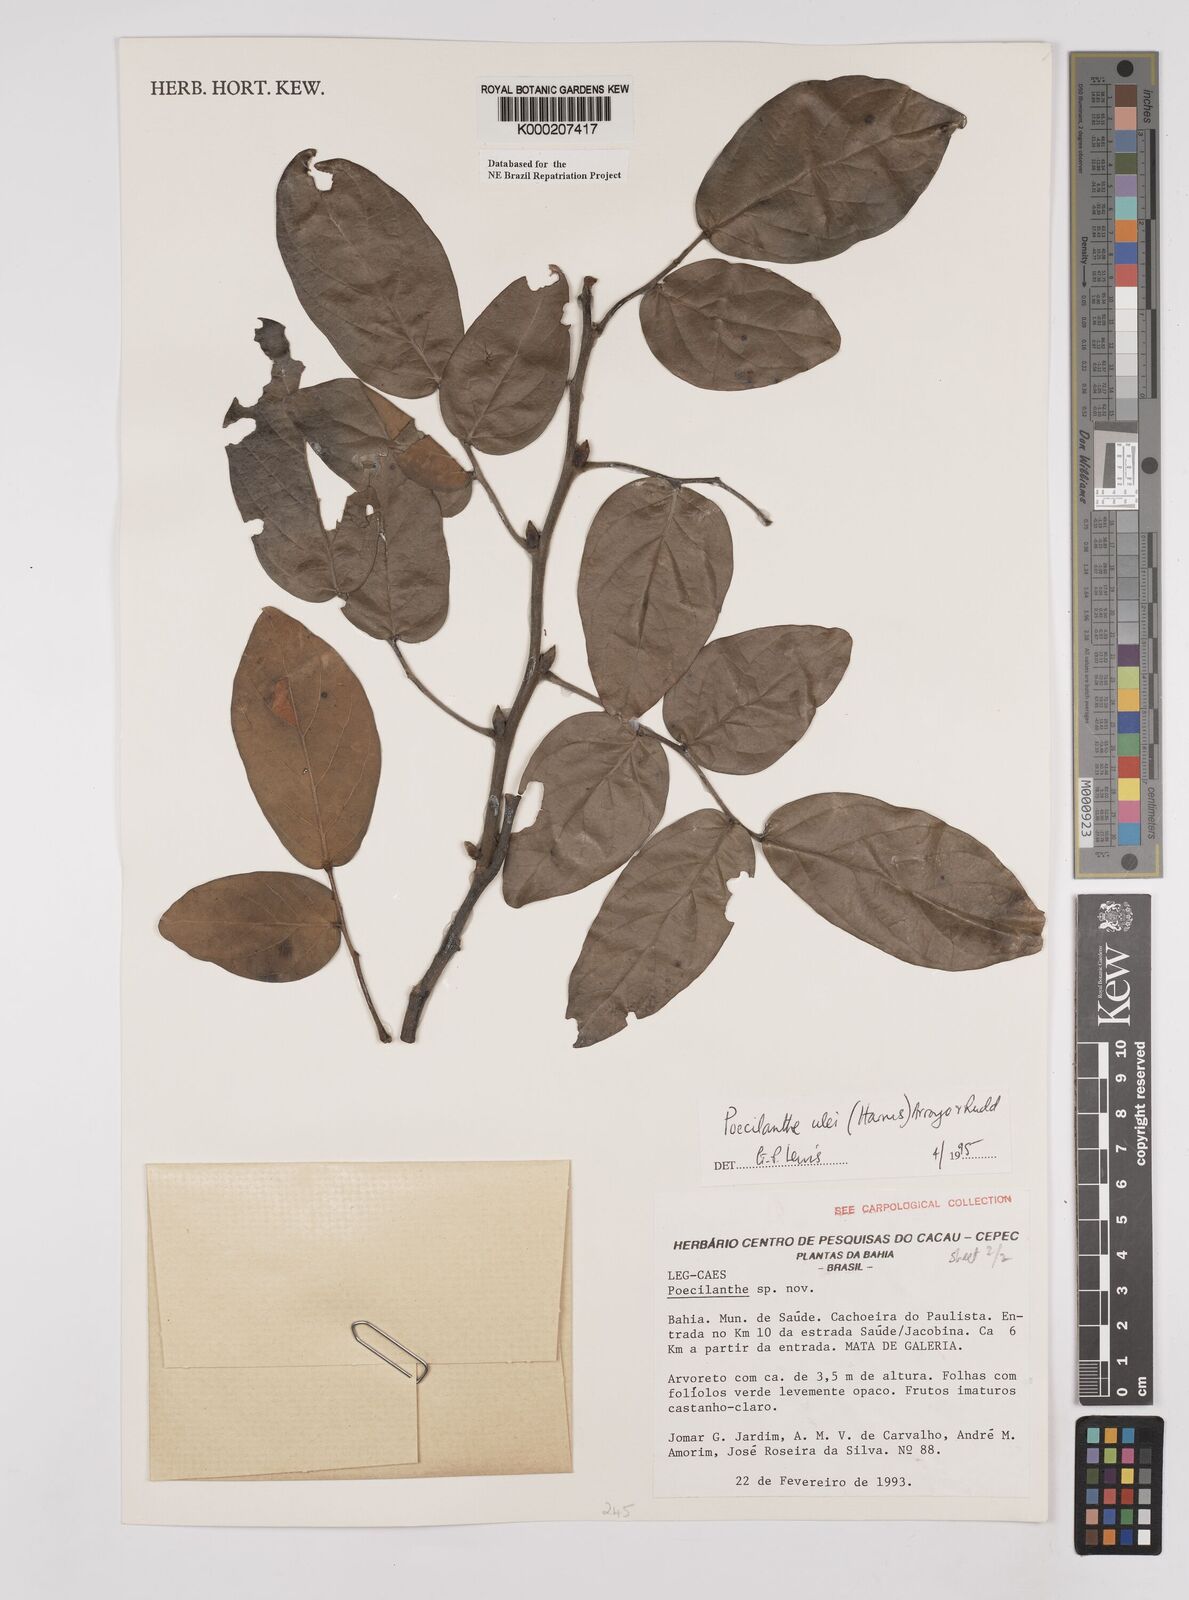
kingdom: Plantae
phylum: Tracheophyta
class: Magnoliopsida
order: Fabales
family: Fabaceae
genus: Poecilanthe
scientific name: Poecilanthe ulei
